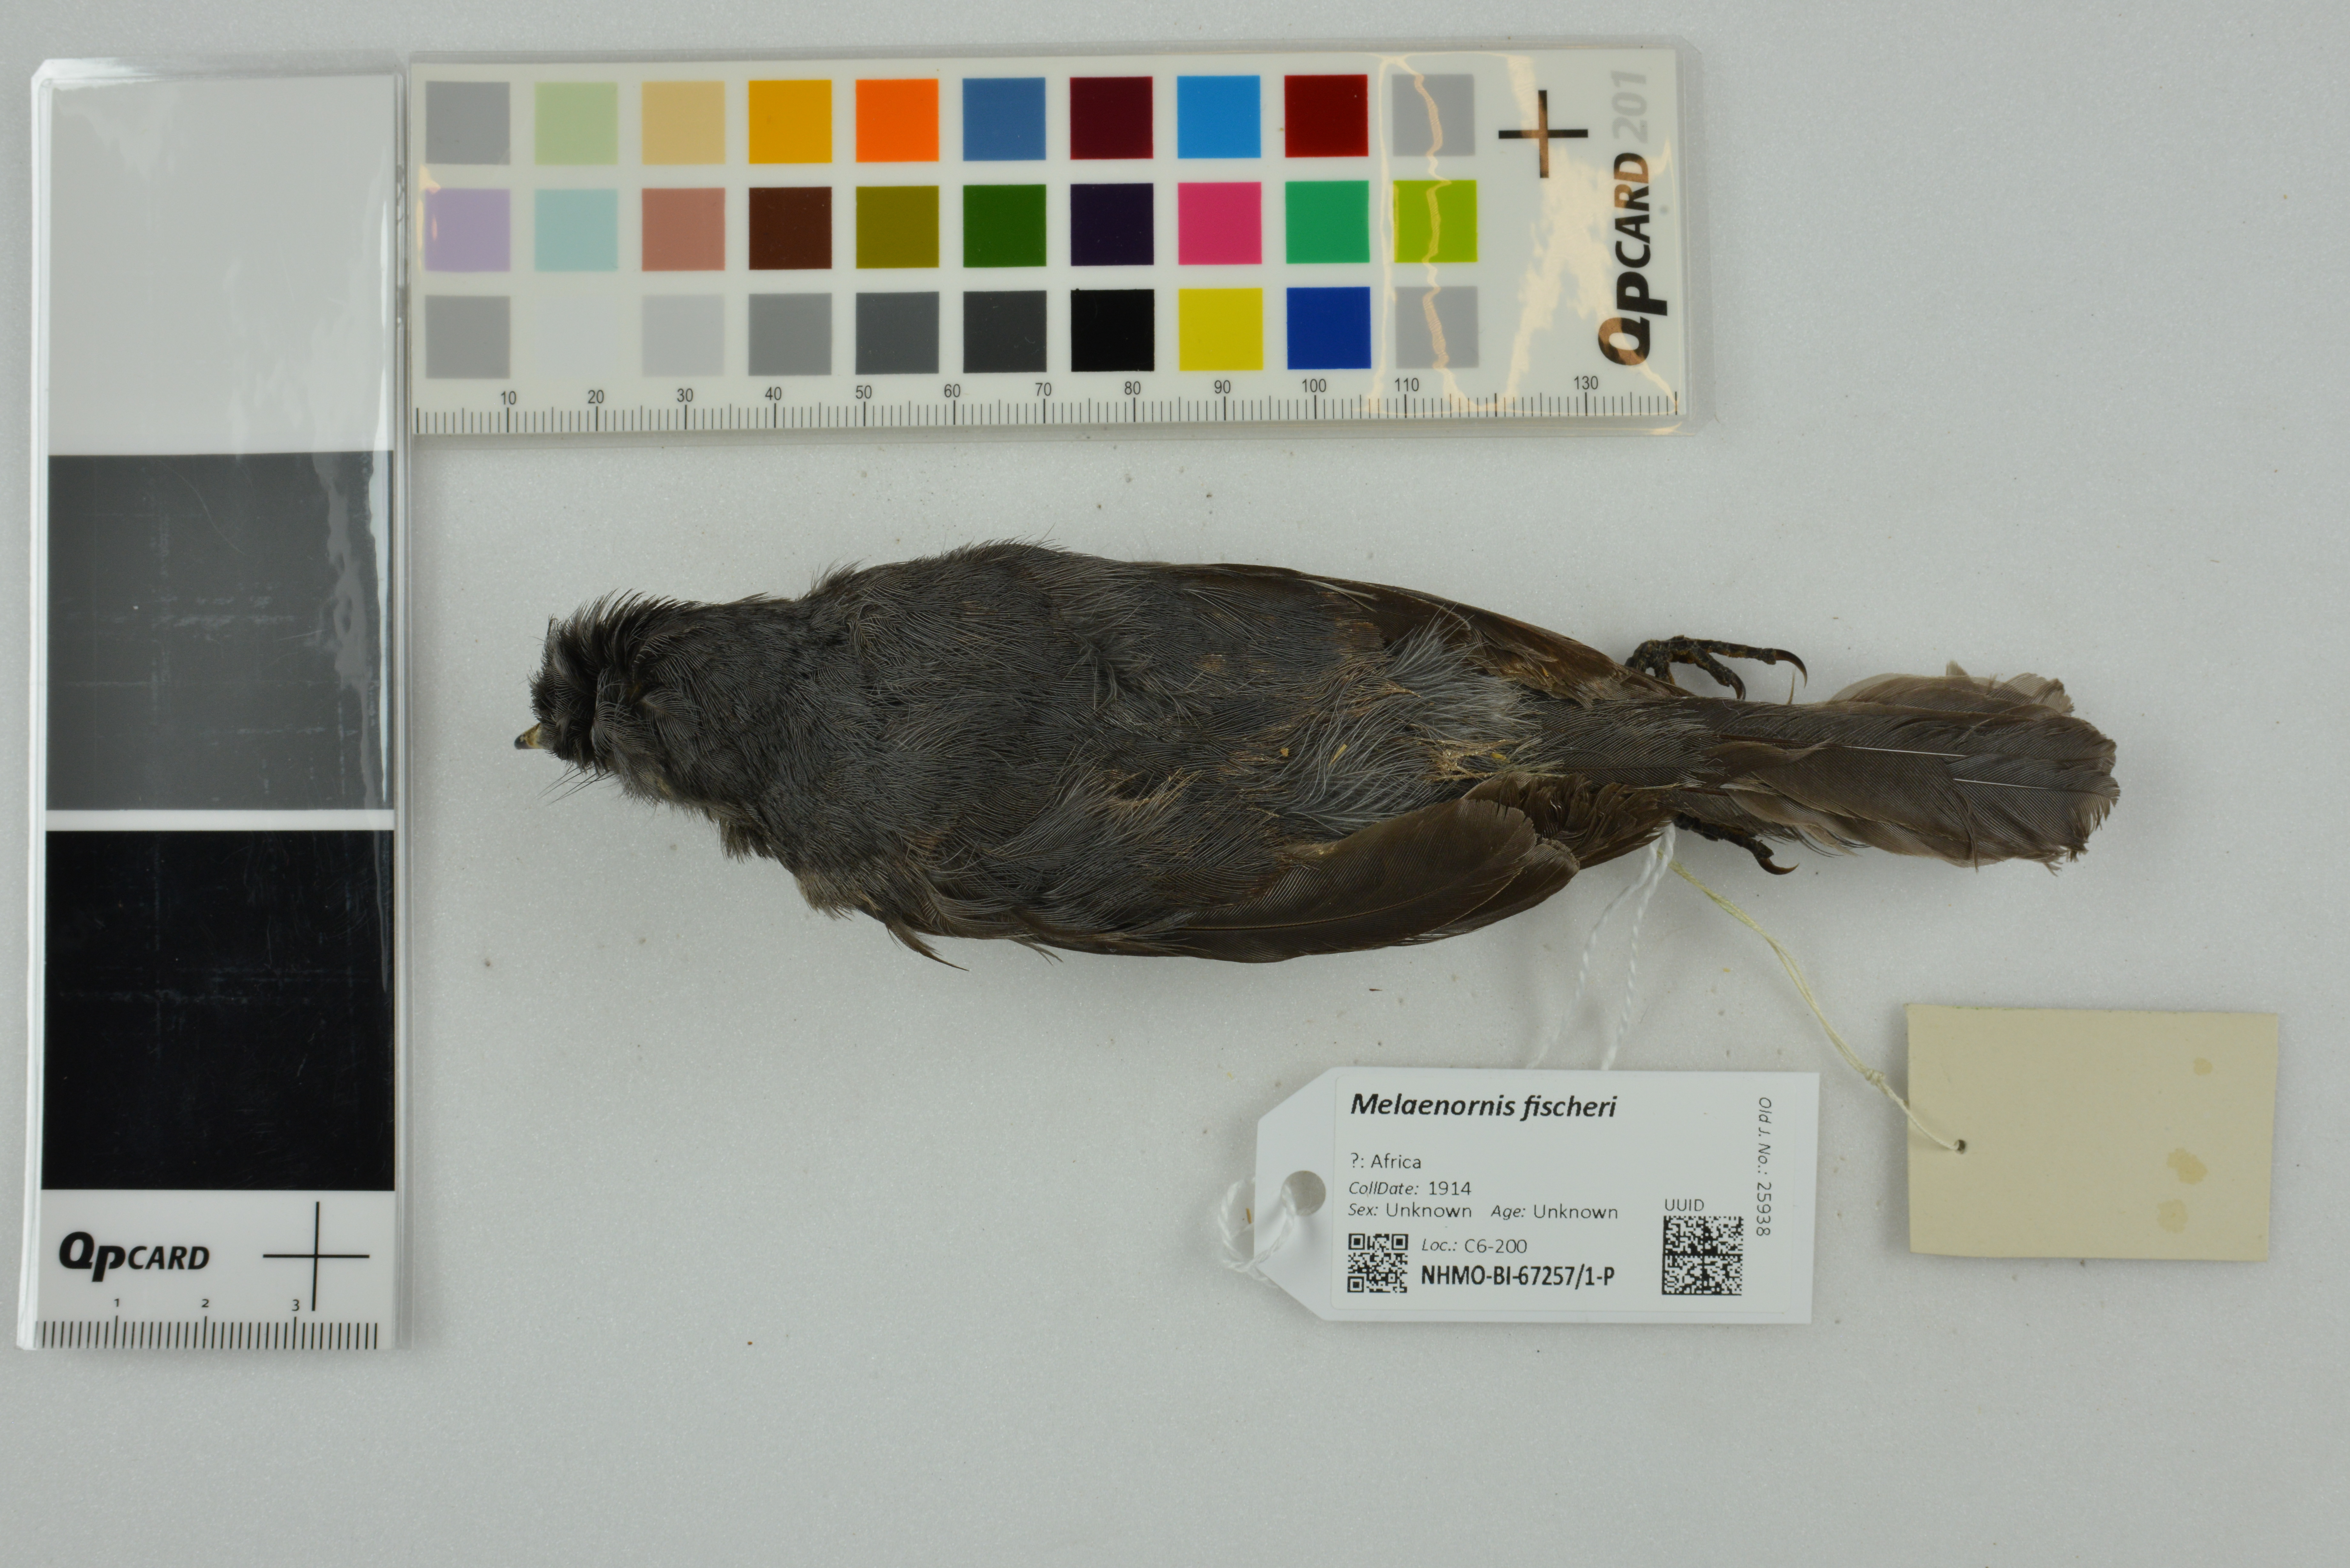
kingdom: Animalia
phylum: Chordata
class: Aves
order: Passeriformes
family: Muscicapidae
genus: Dioptrornis
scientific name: Dioptrornis fischeri
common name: White-eyed slaty flycatcher
